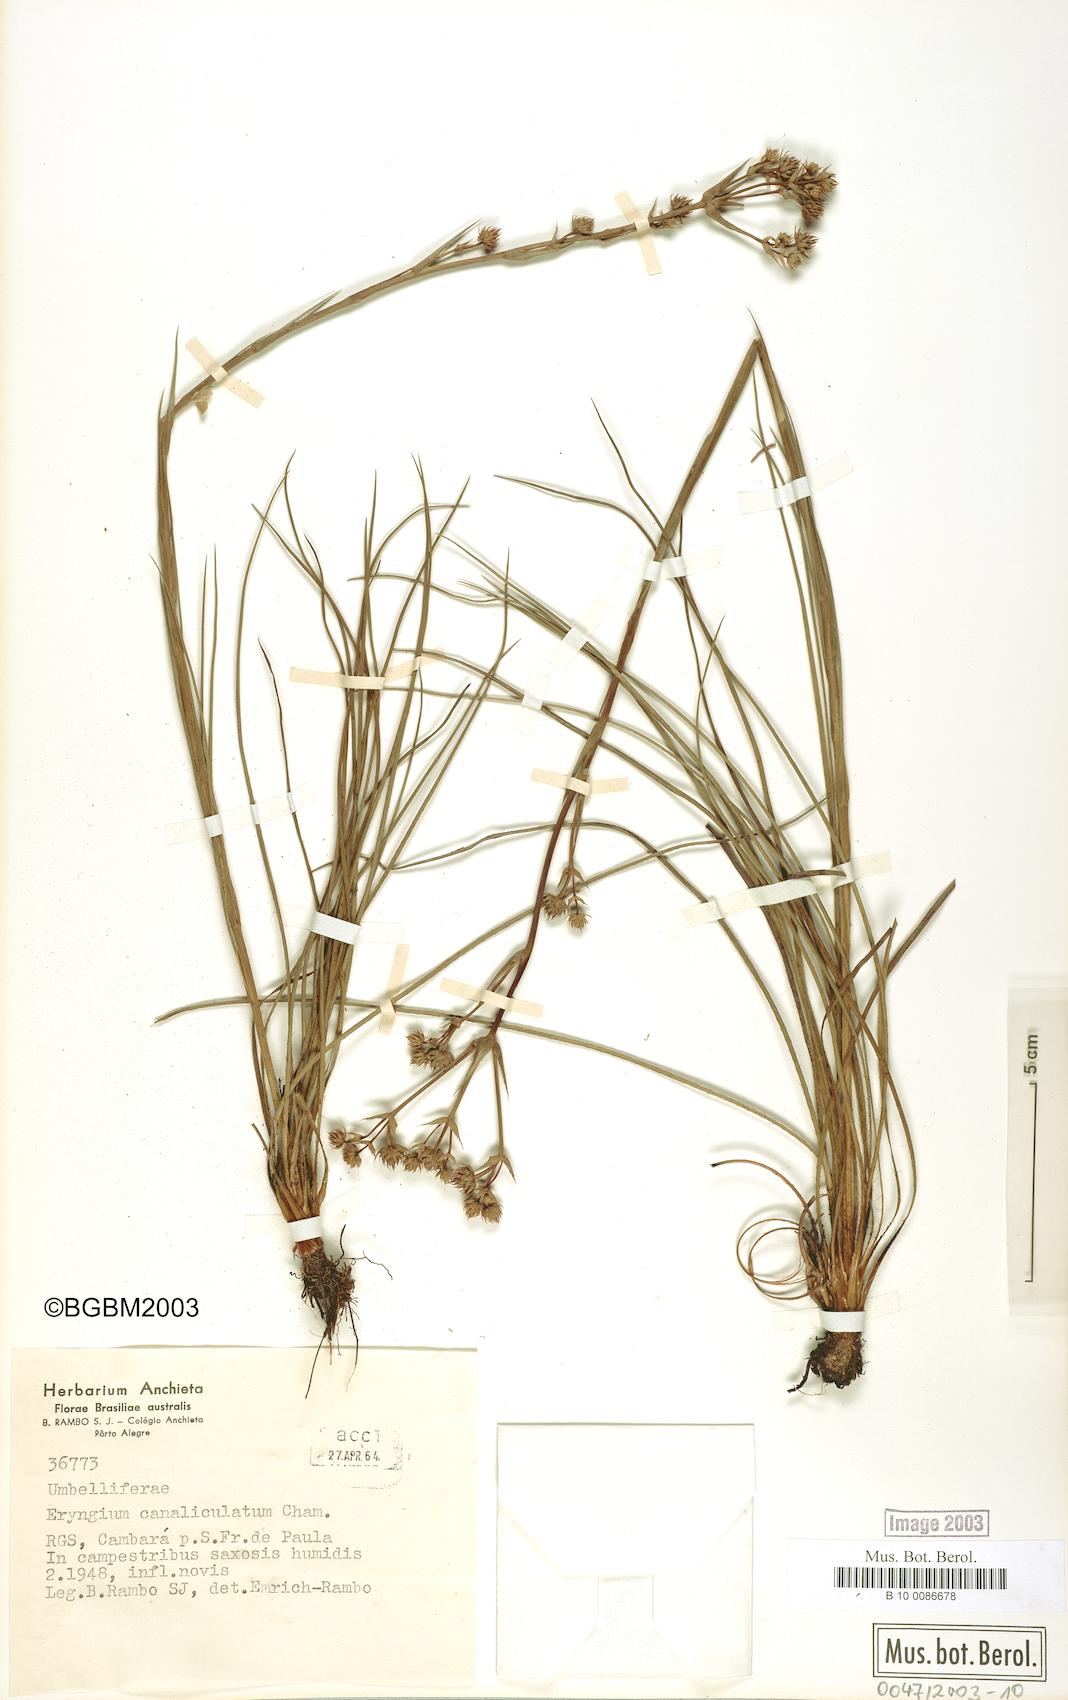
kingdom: Plantae
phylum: Tracheophyta
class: Magnoliopsida
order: Apiales
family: Apiaceae
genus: Eryngium
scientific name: Eryngium canaliculatum
